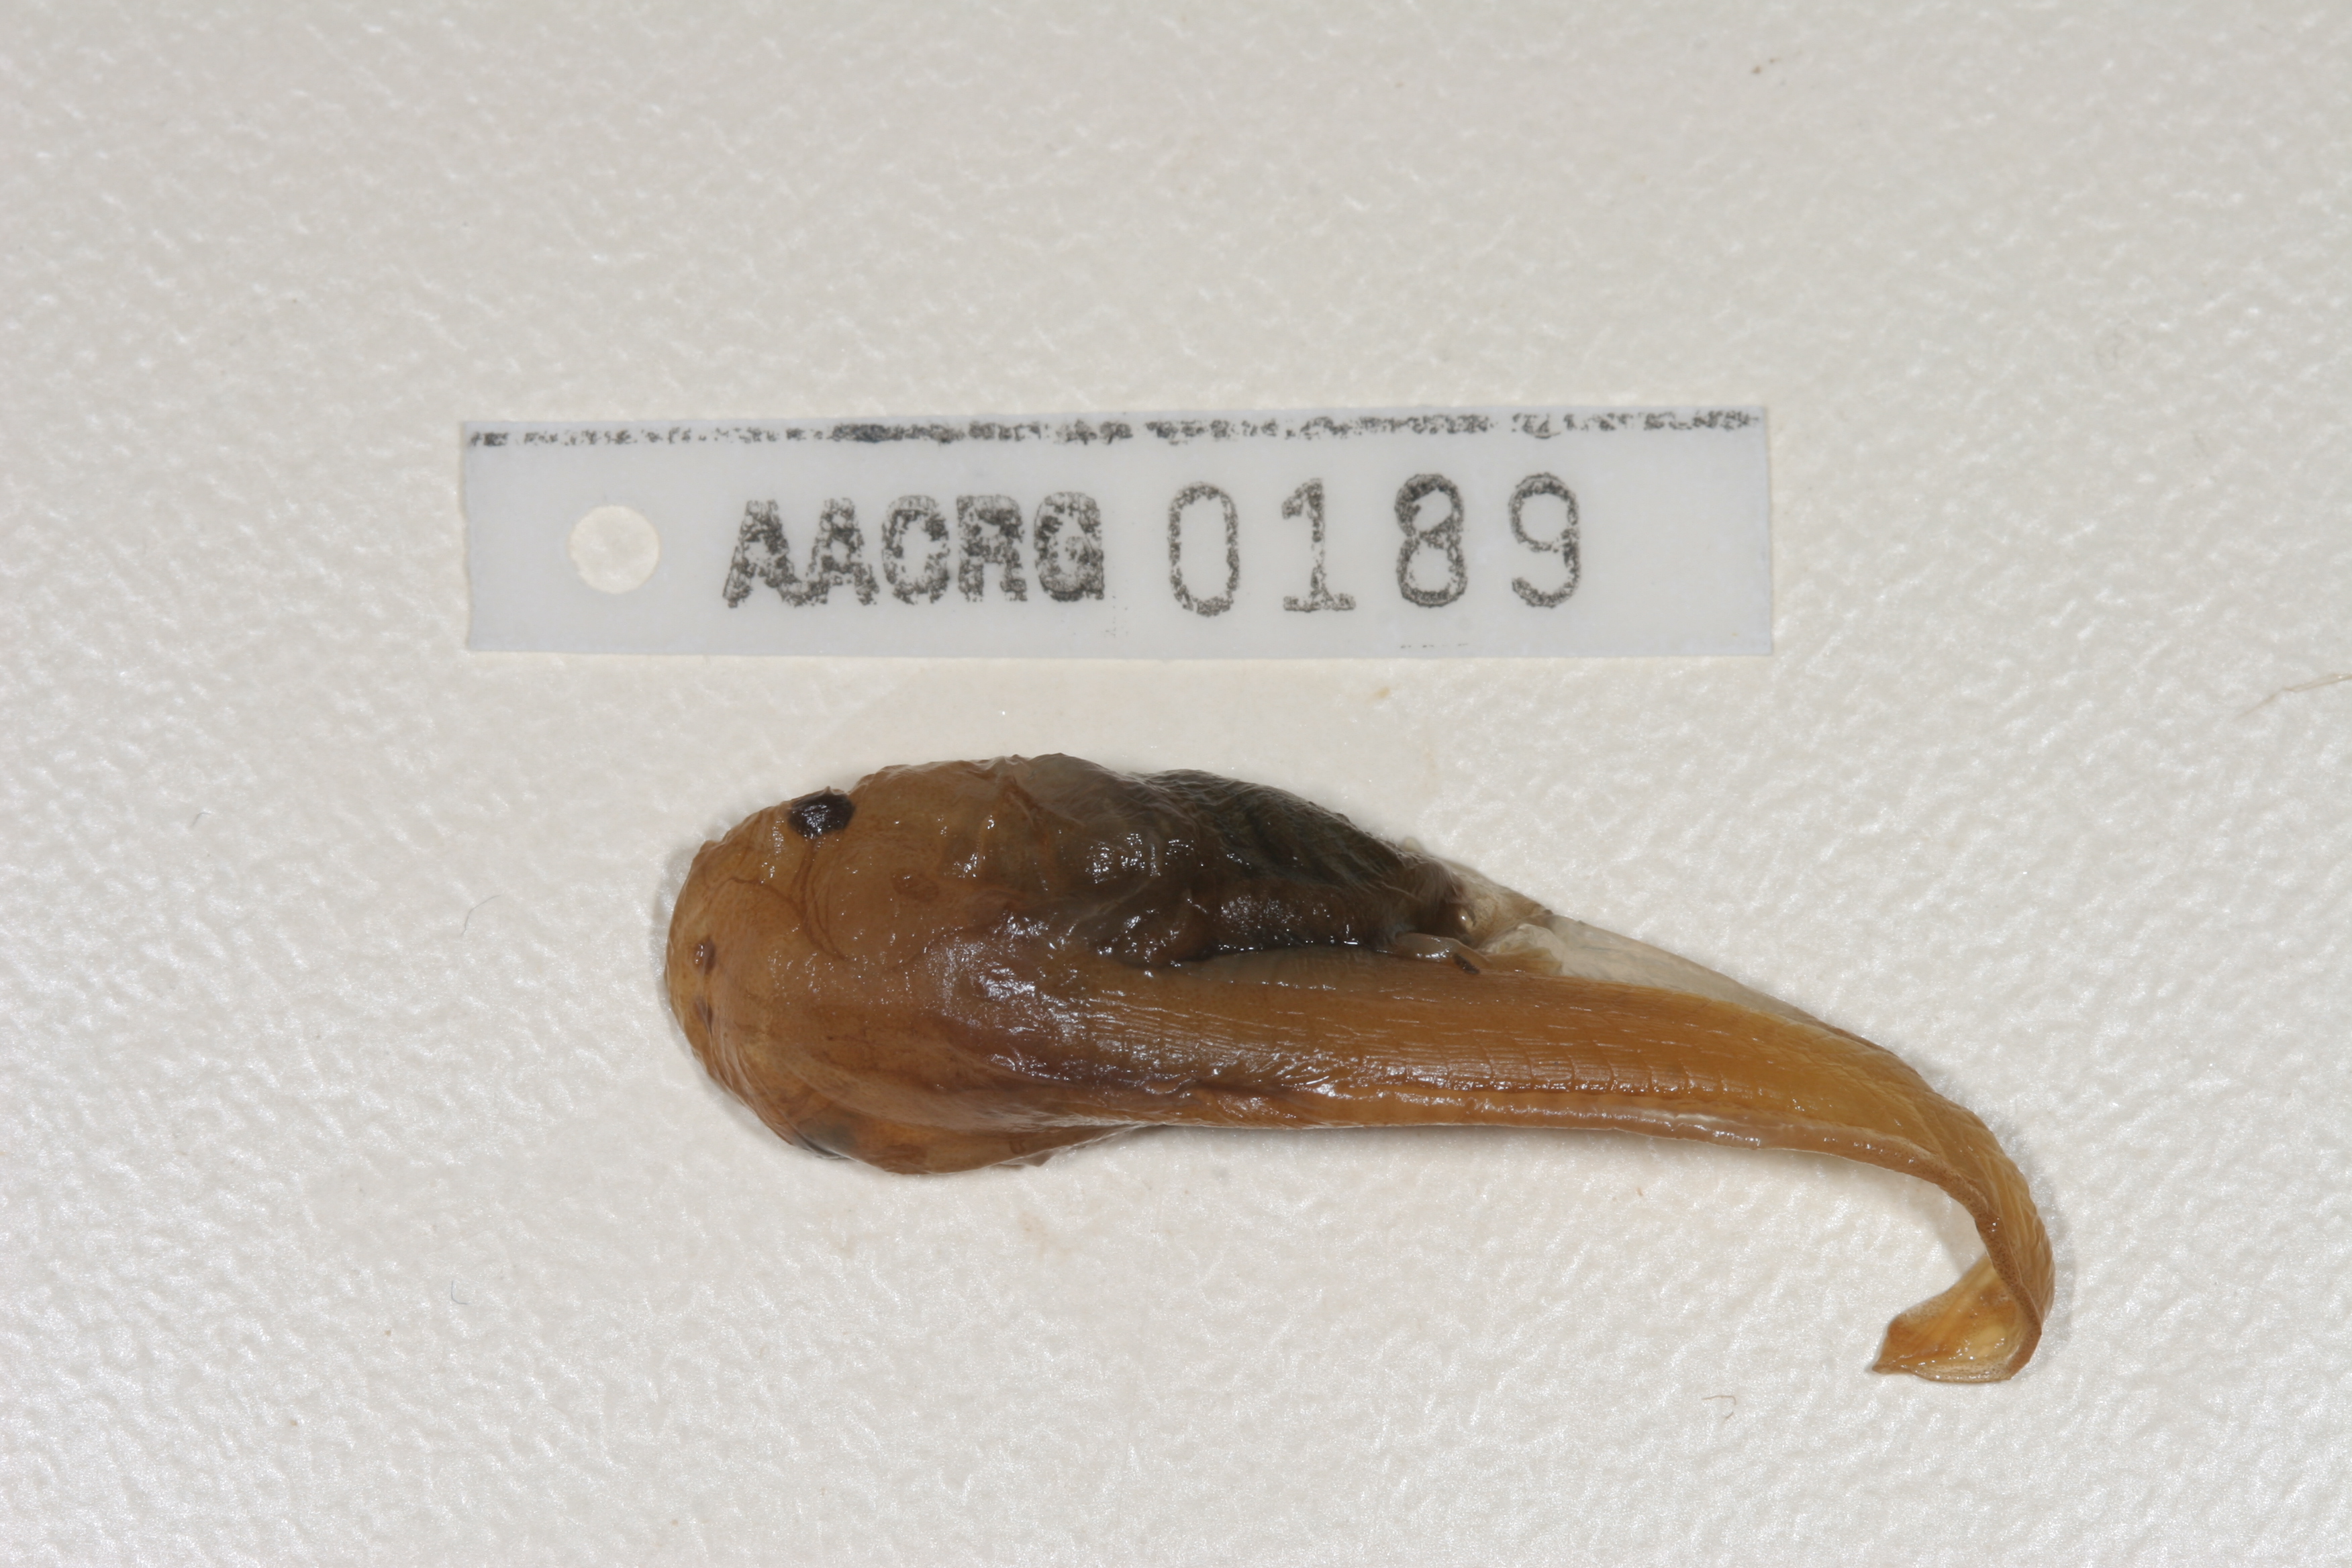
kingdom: Animalia
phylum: Chordata
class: Amphibia
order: Anura
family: Pipidae
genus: Xenopus
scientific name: Xenopus laevis
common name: African clawed frog
